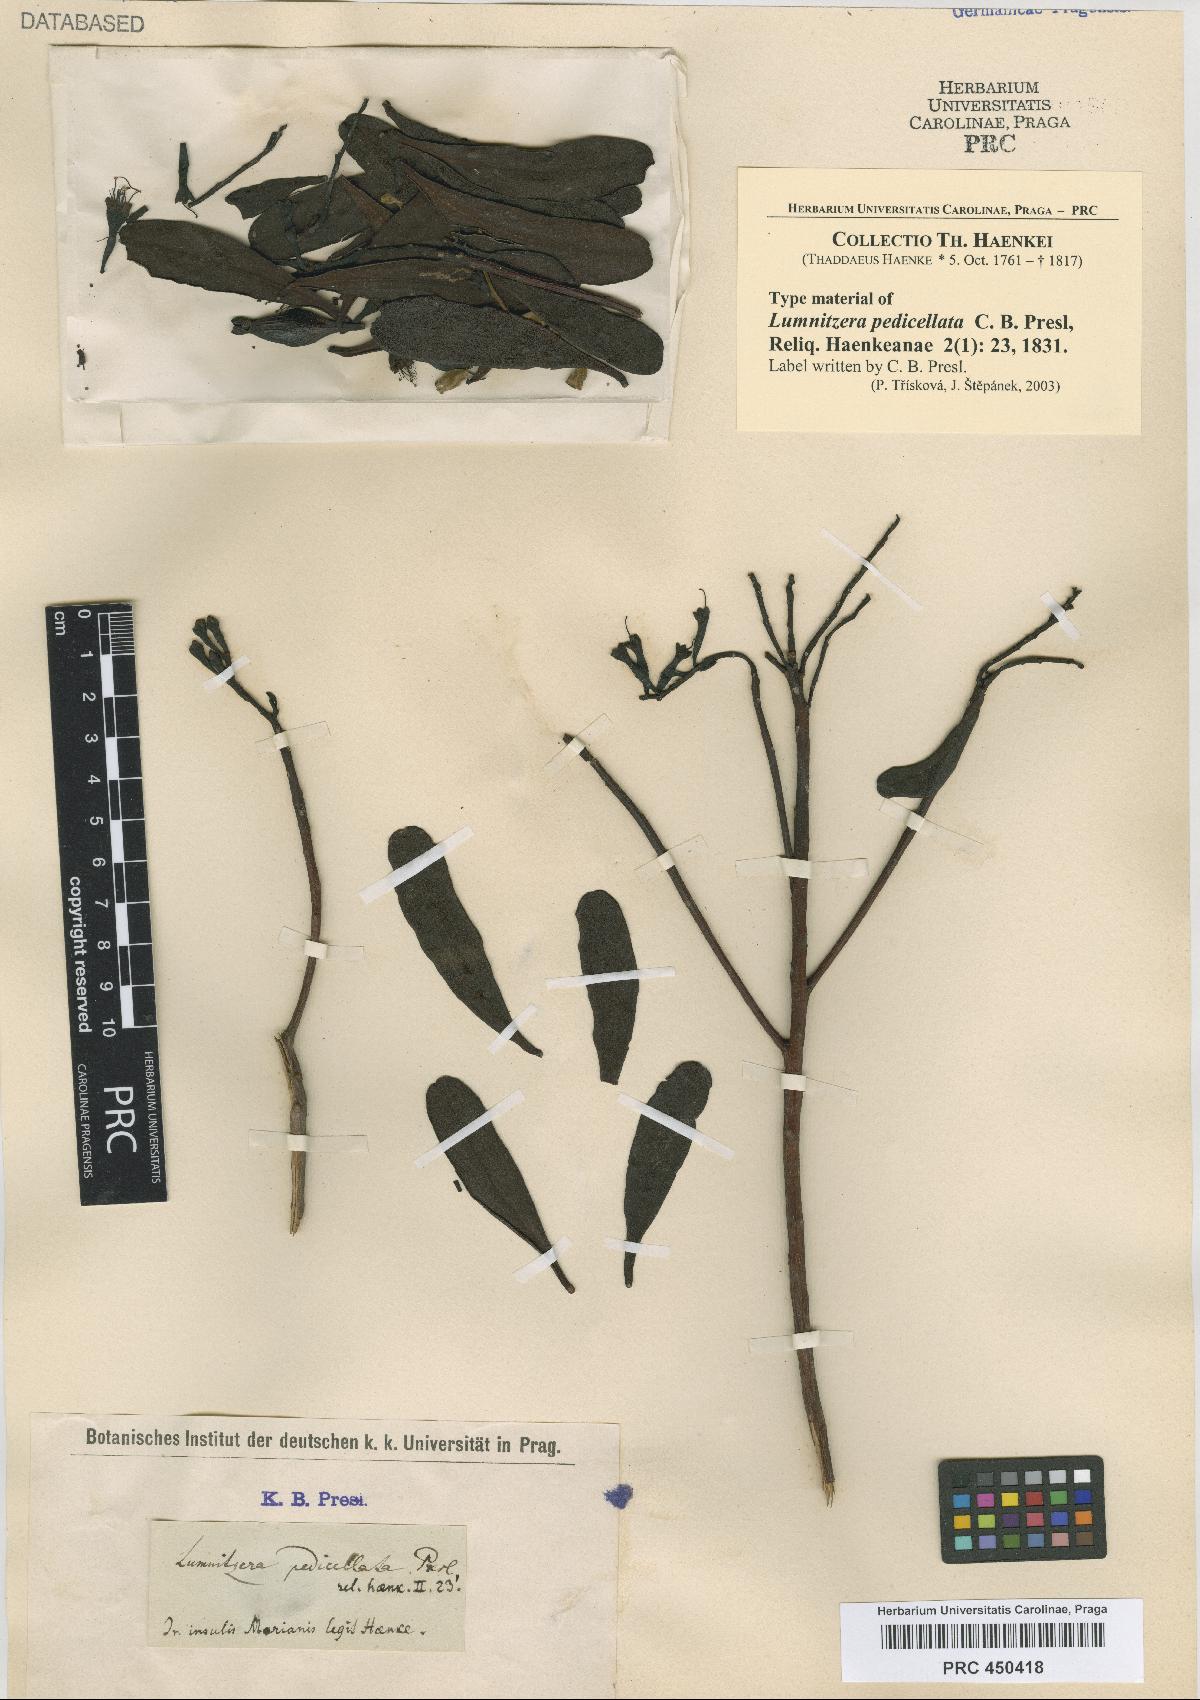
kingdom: Plantae
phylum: Tracheophyta
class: Magnoliopsida
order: Myrtales
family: Combretaceae
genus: Lumnitzera
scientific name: Lumnitzera littorea
